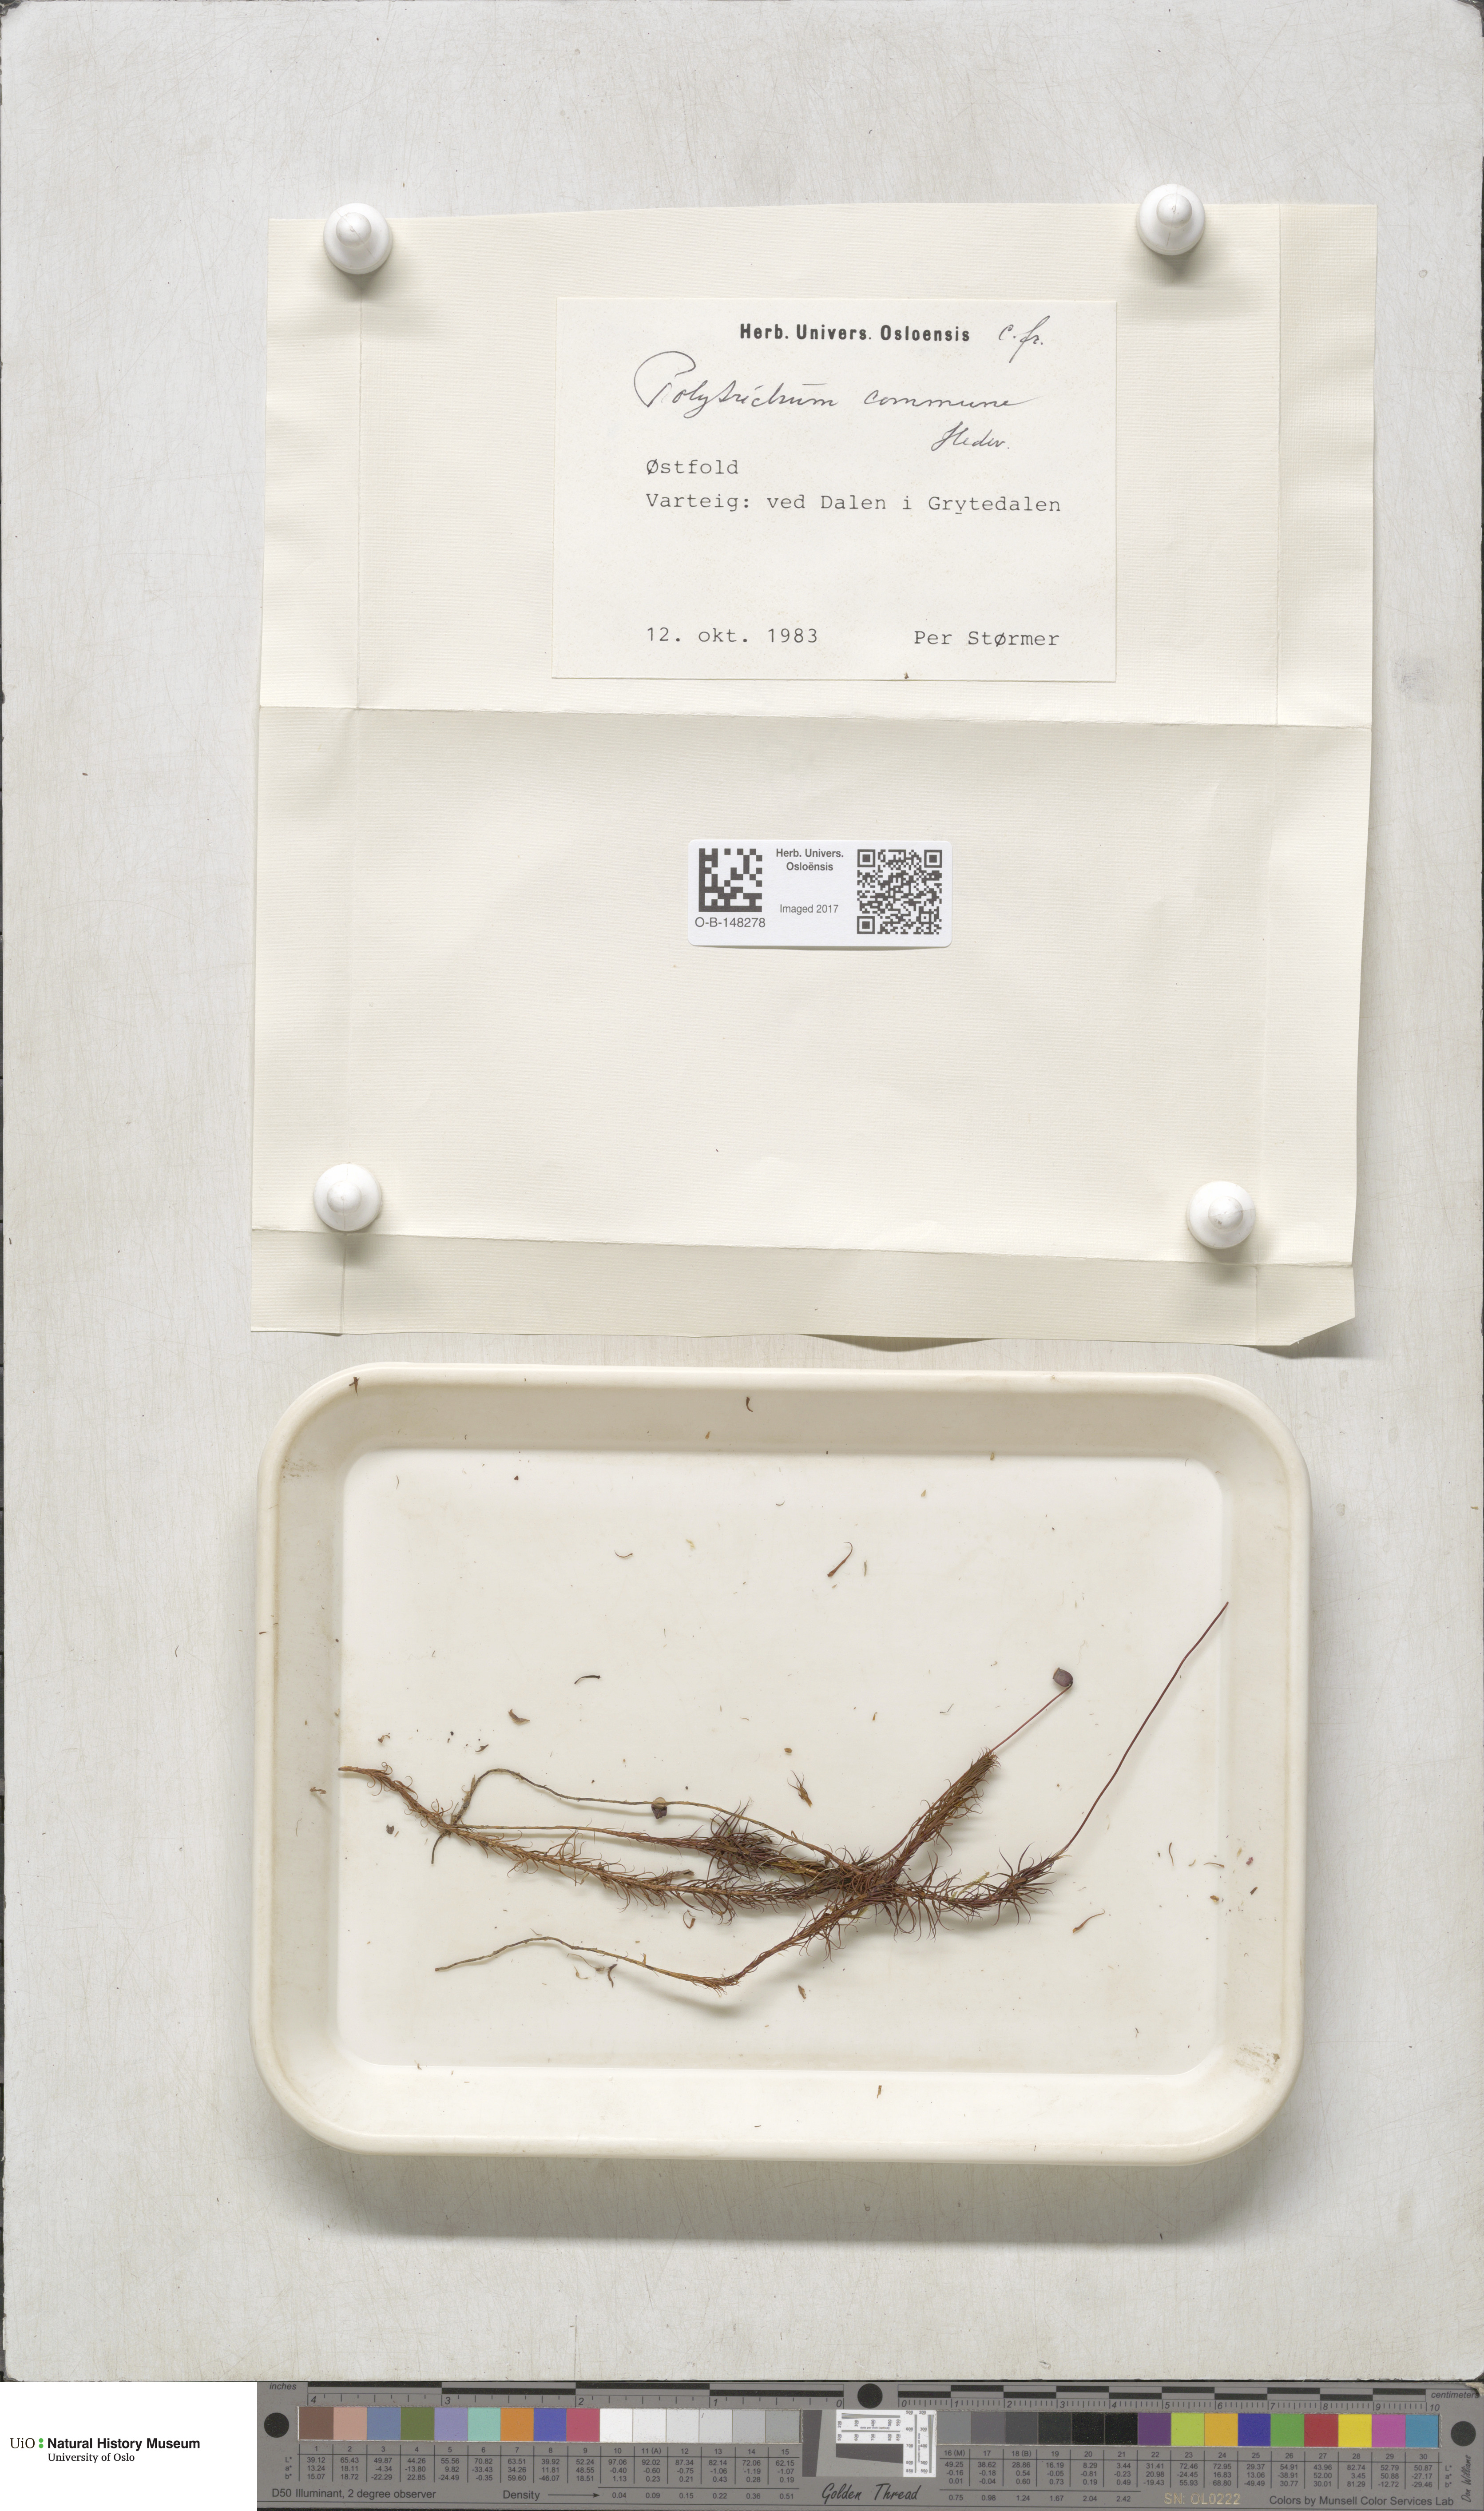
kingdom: Plantae
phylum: Bryophyta
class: Polytrichopsida
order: Polytrichales
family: Polytrichaceae
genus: Polytrichum
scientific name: Polytrichum commune
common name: Common haircap
